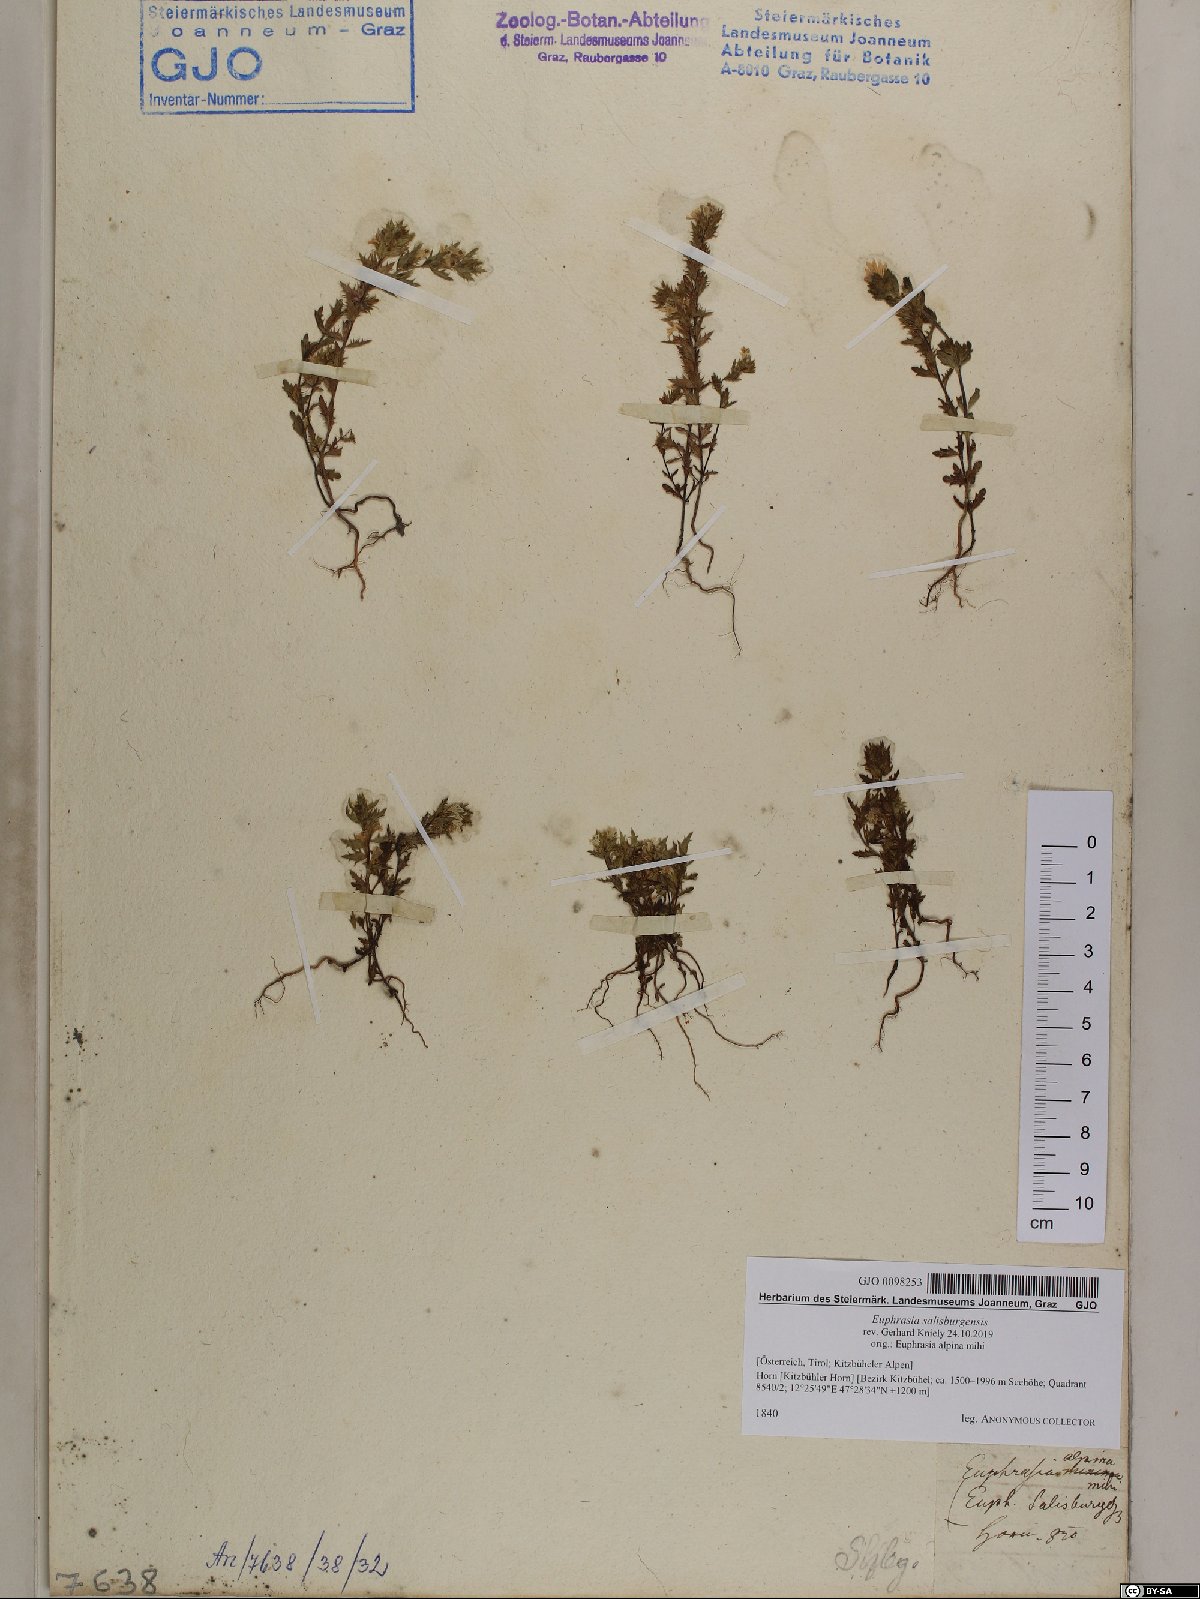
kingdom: Plantae
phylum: Tracheophyta
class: Magnoliopsida
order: Lamiales
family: Orobanchaceae
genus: Euphrasia
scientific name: Euphrasia salisburgensis
